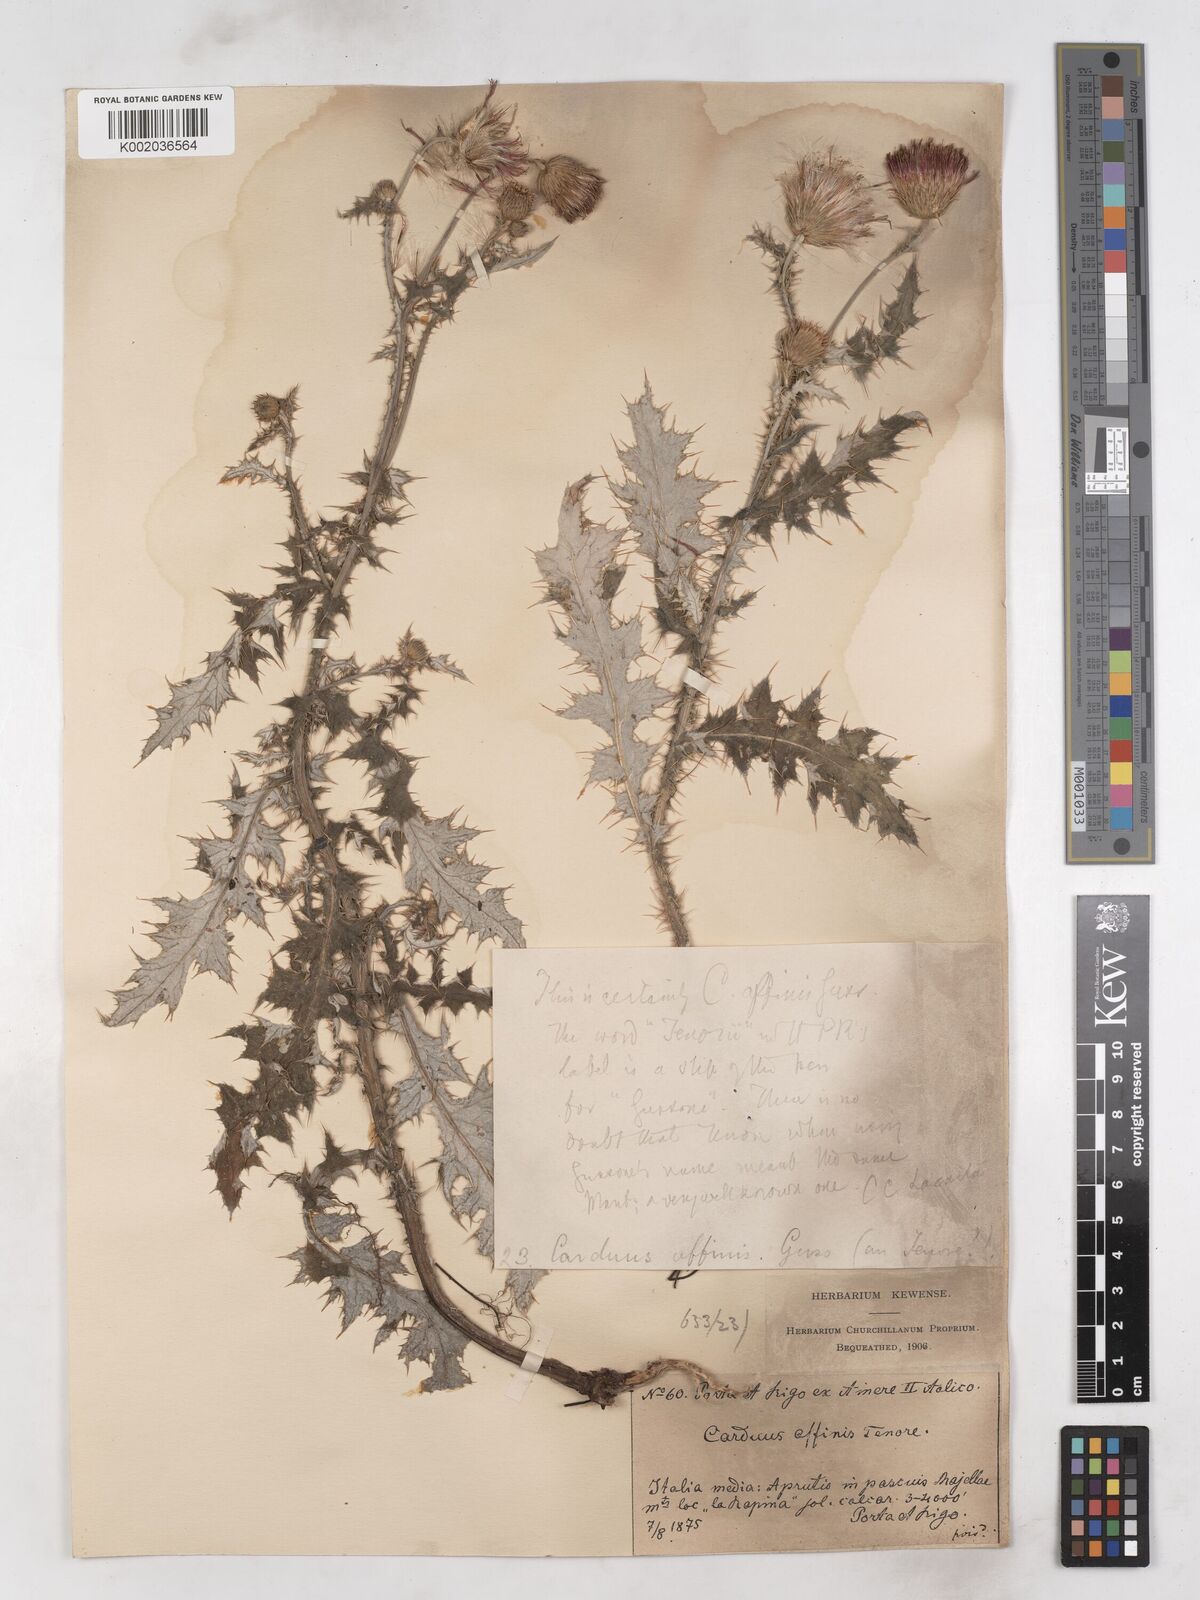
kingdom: Plantae
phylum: Tracheophyta
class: Magnoliopsida
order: Asterales
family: Asteraceae
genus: Carduus
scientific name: Carduus affinis
